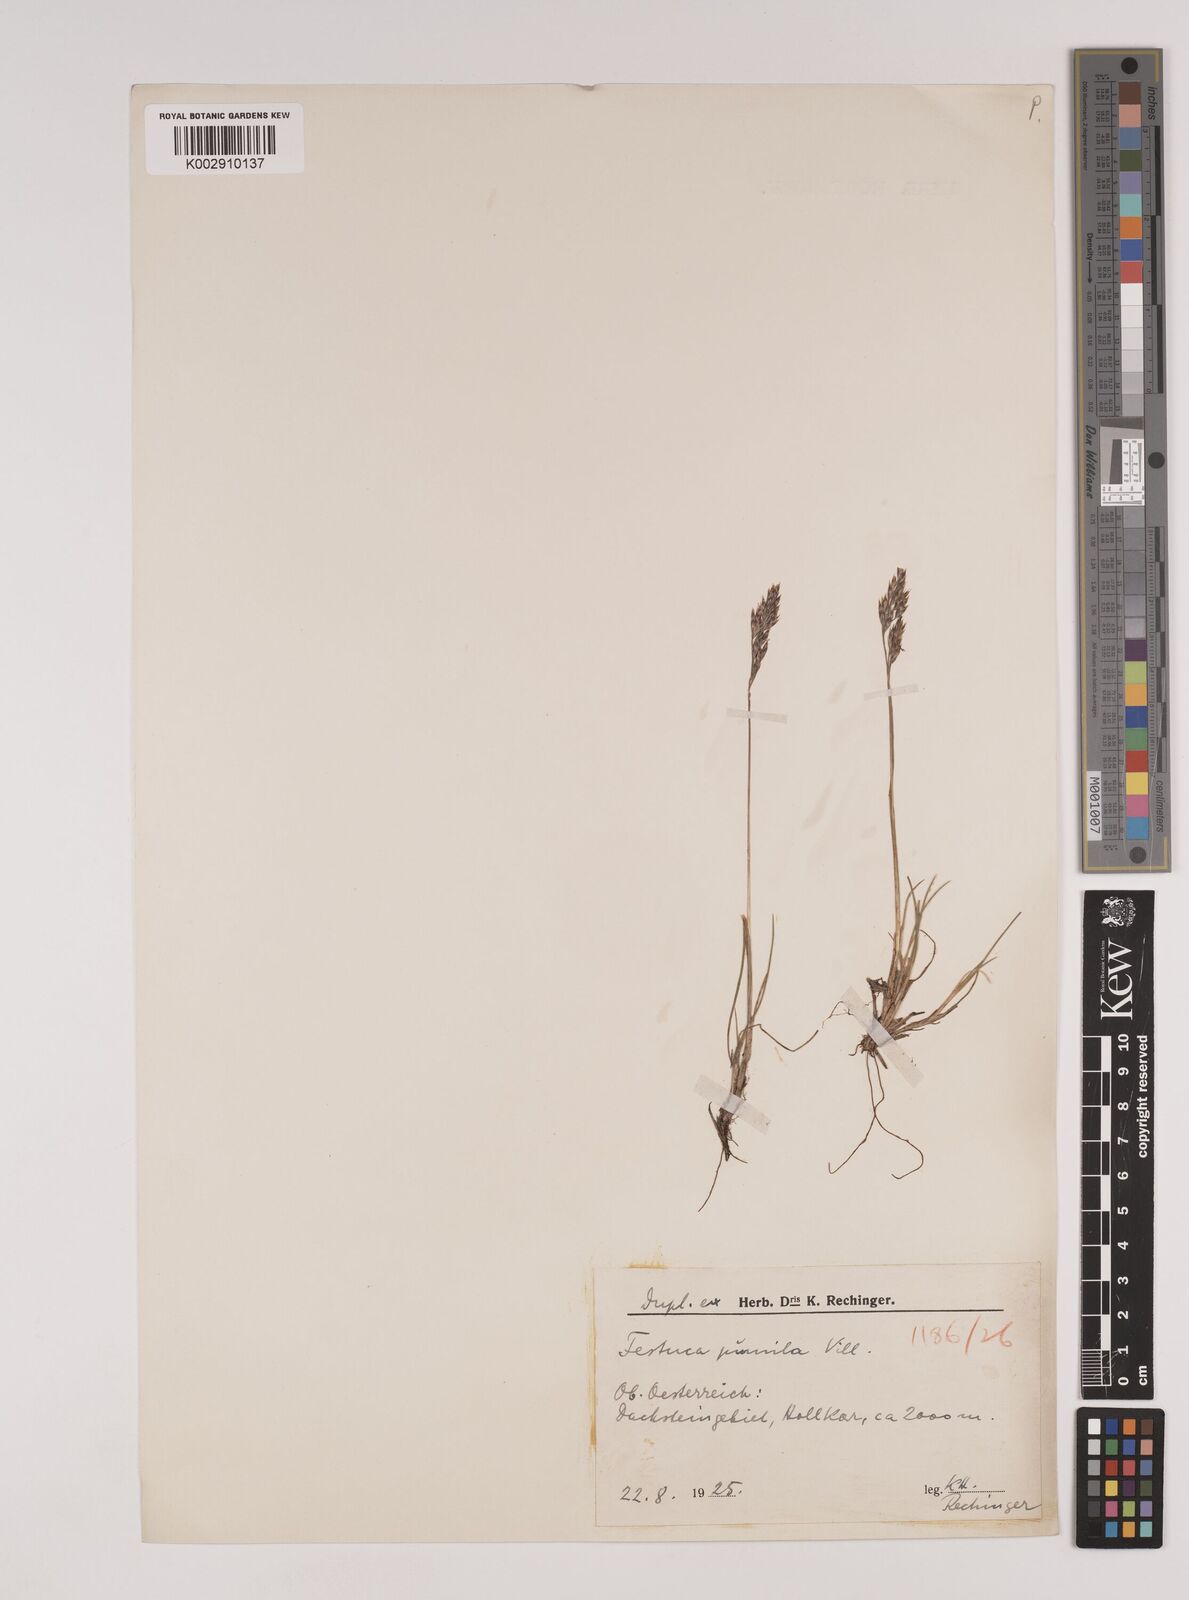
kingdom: Plantae
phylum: Tracheophyta
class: Liliopsida
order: Poales
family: Poaceae
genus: Festuca
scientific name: Festuca
